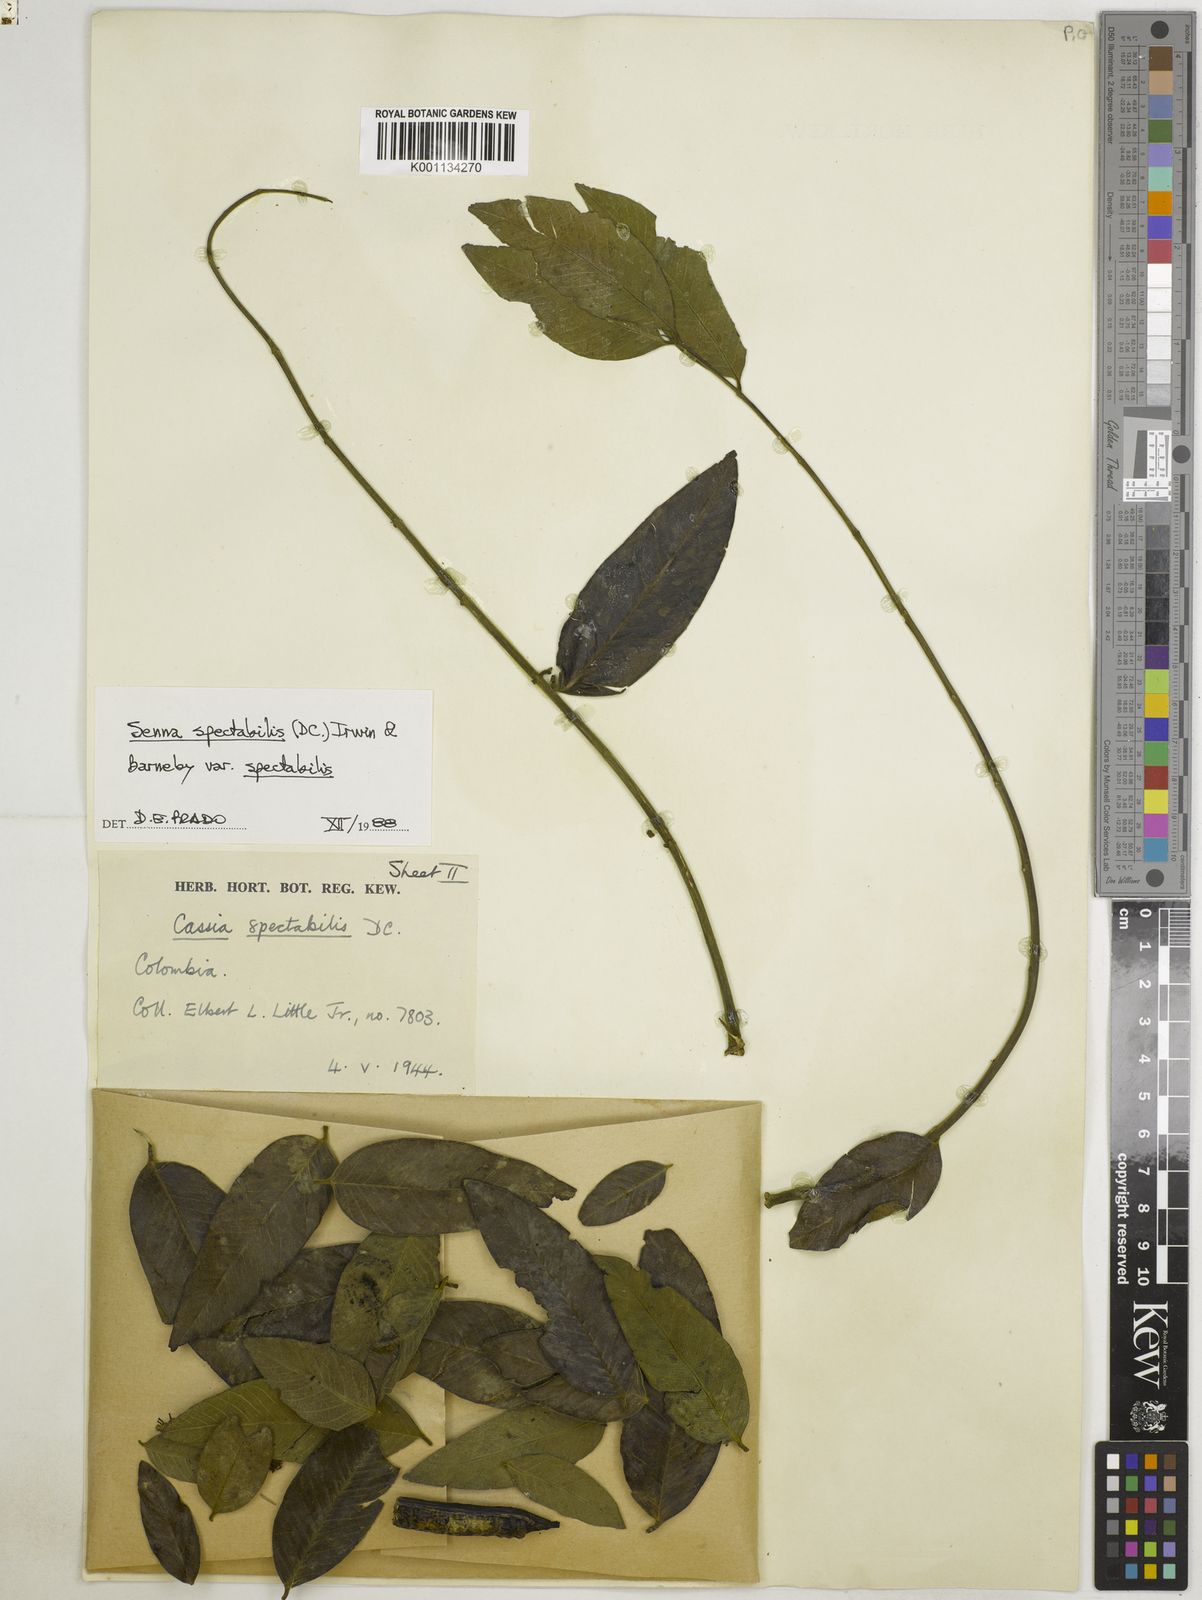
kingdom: Plantae
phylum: Tracheophyta
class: Magnoliopsida
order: Fabales
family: Fabaceae
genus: Senna
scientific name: Senna spectabilis
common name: Casia amarilla
